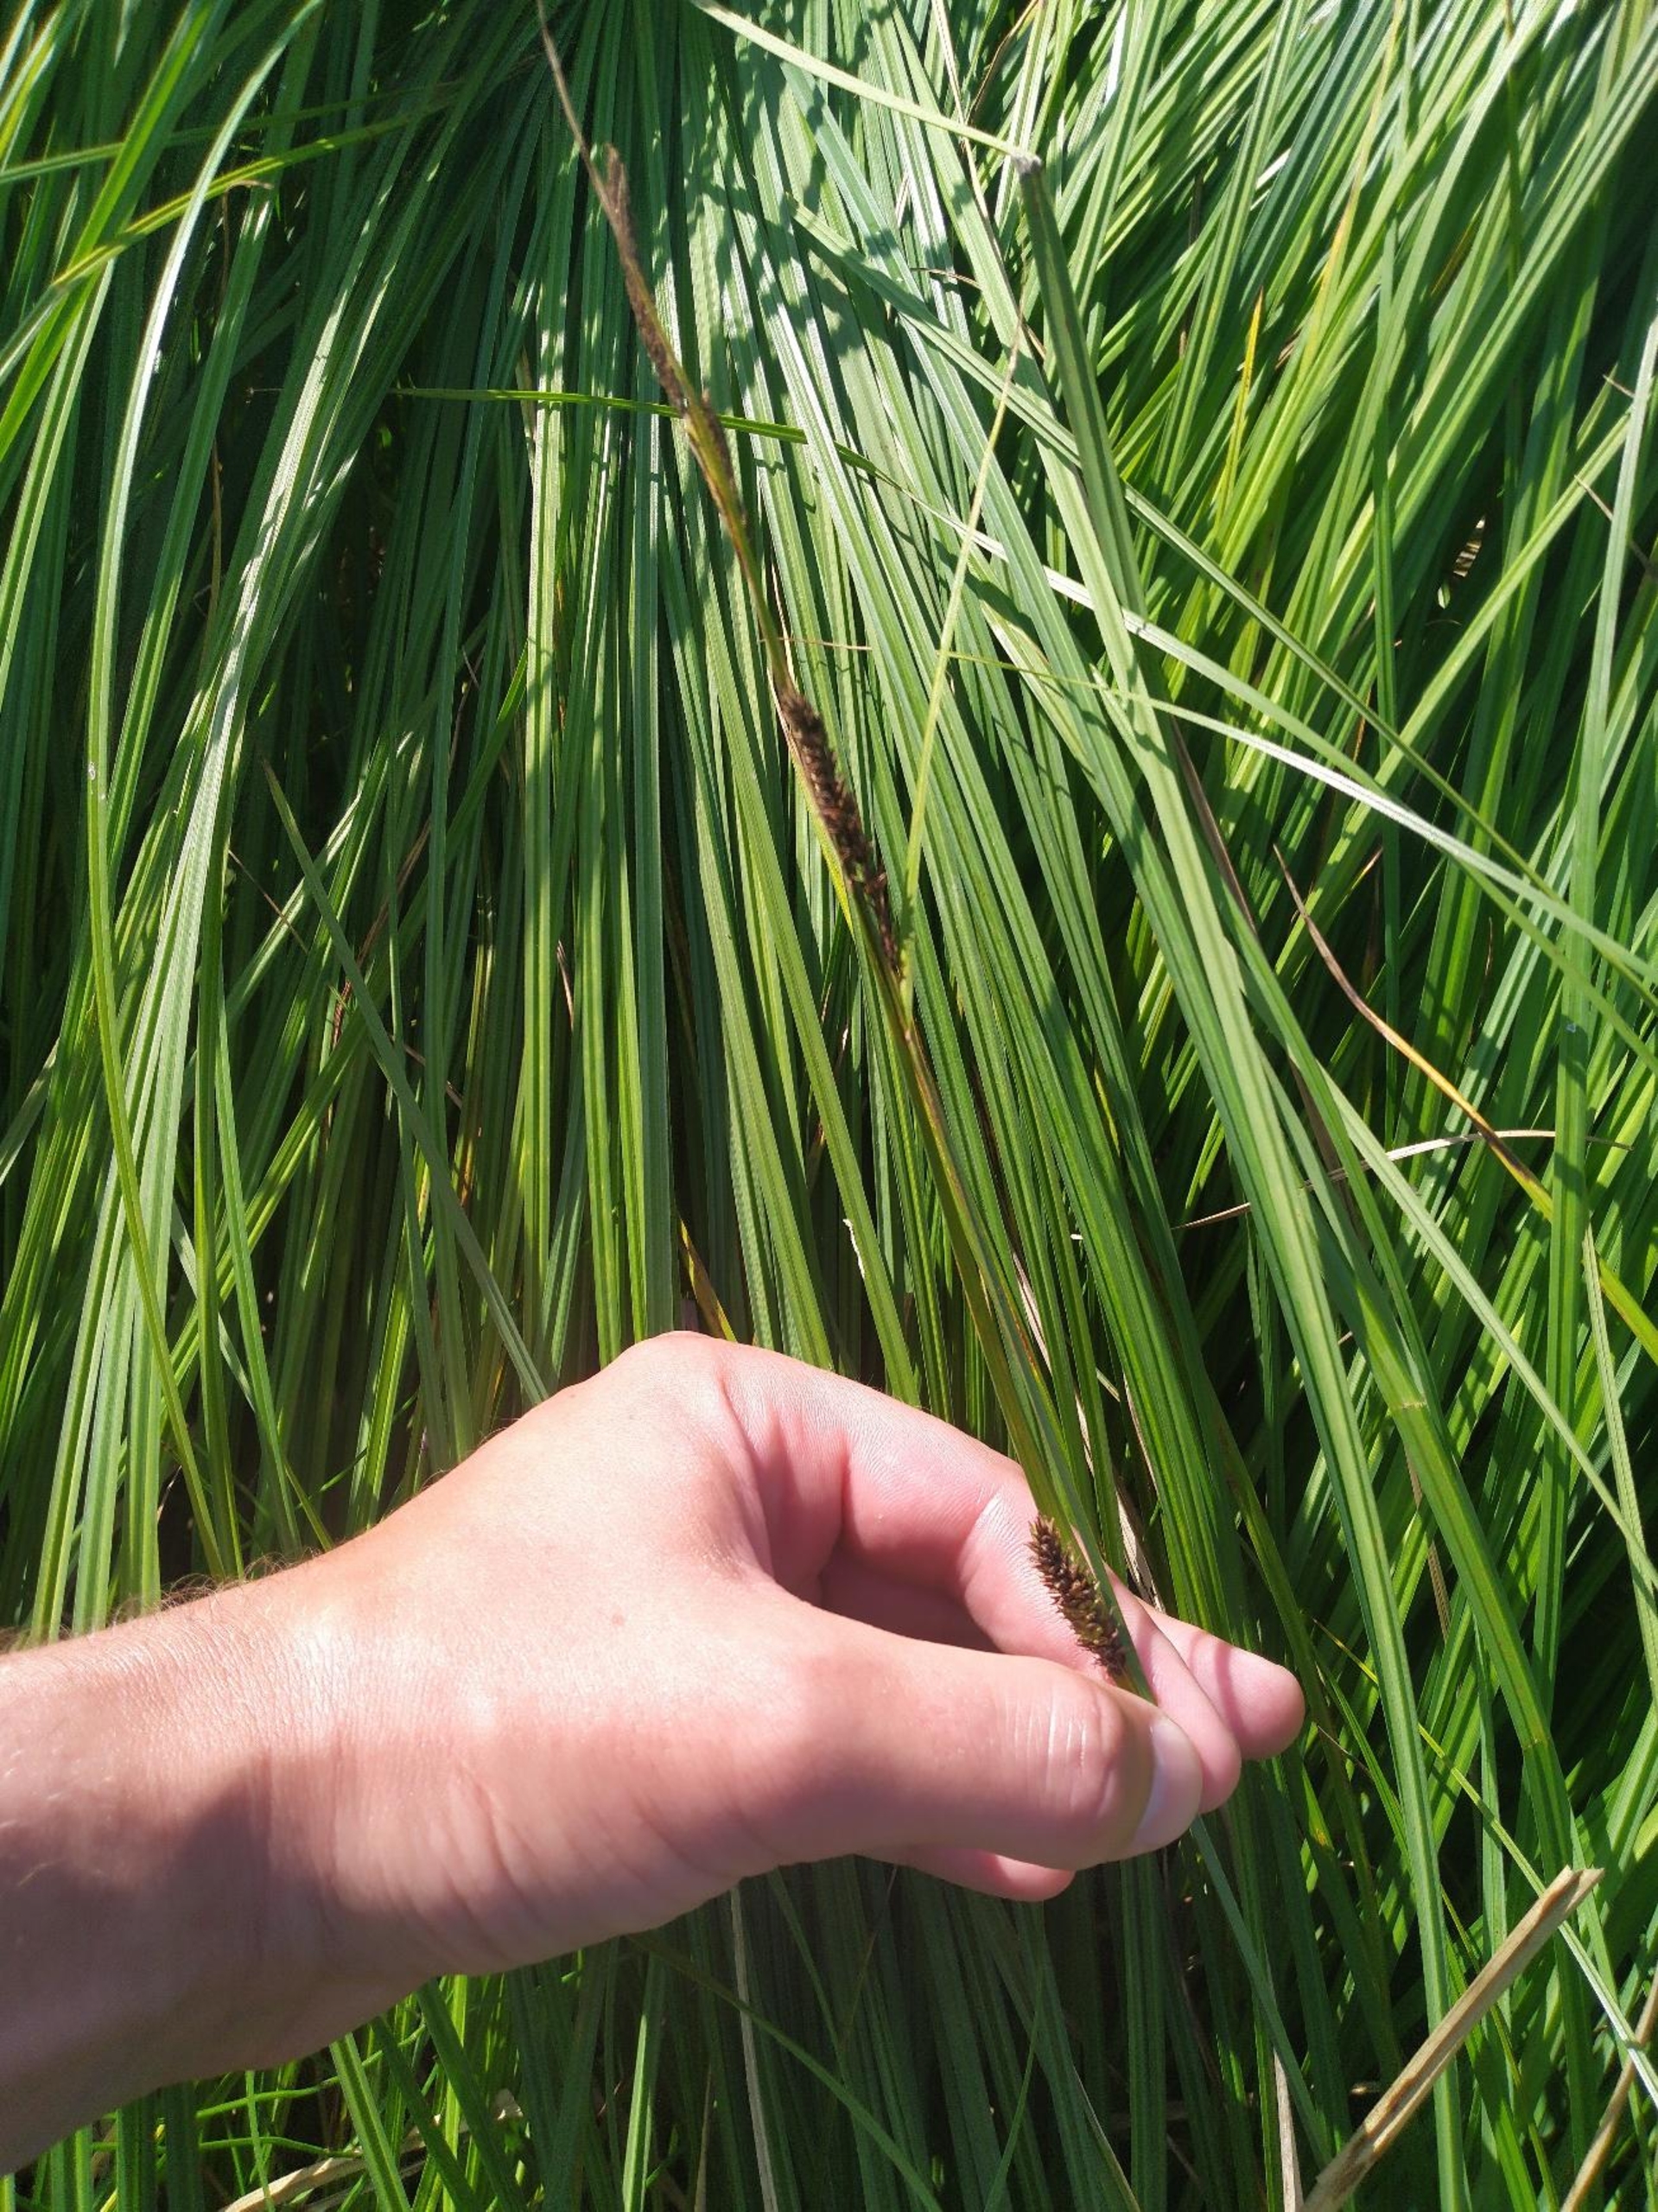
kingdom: Plantae
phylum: Tracheophyta
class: Liliopsida
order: Poales
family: Cyperaceae
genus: Carex
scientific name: Carex acutiformis
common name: Kær-star
